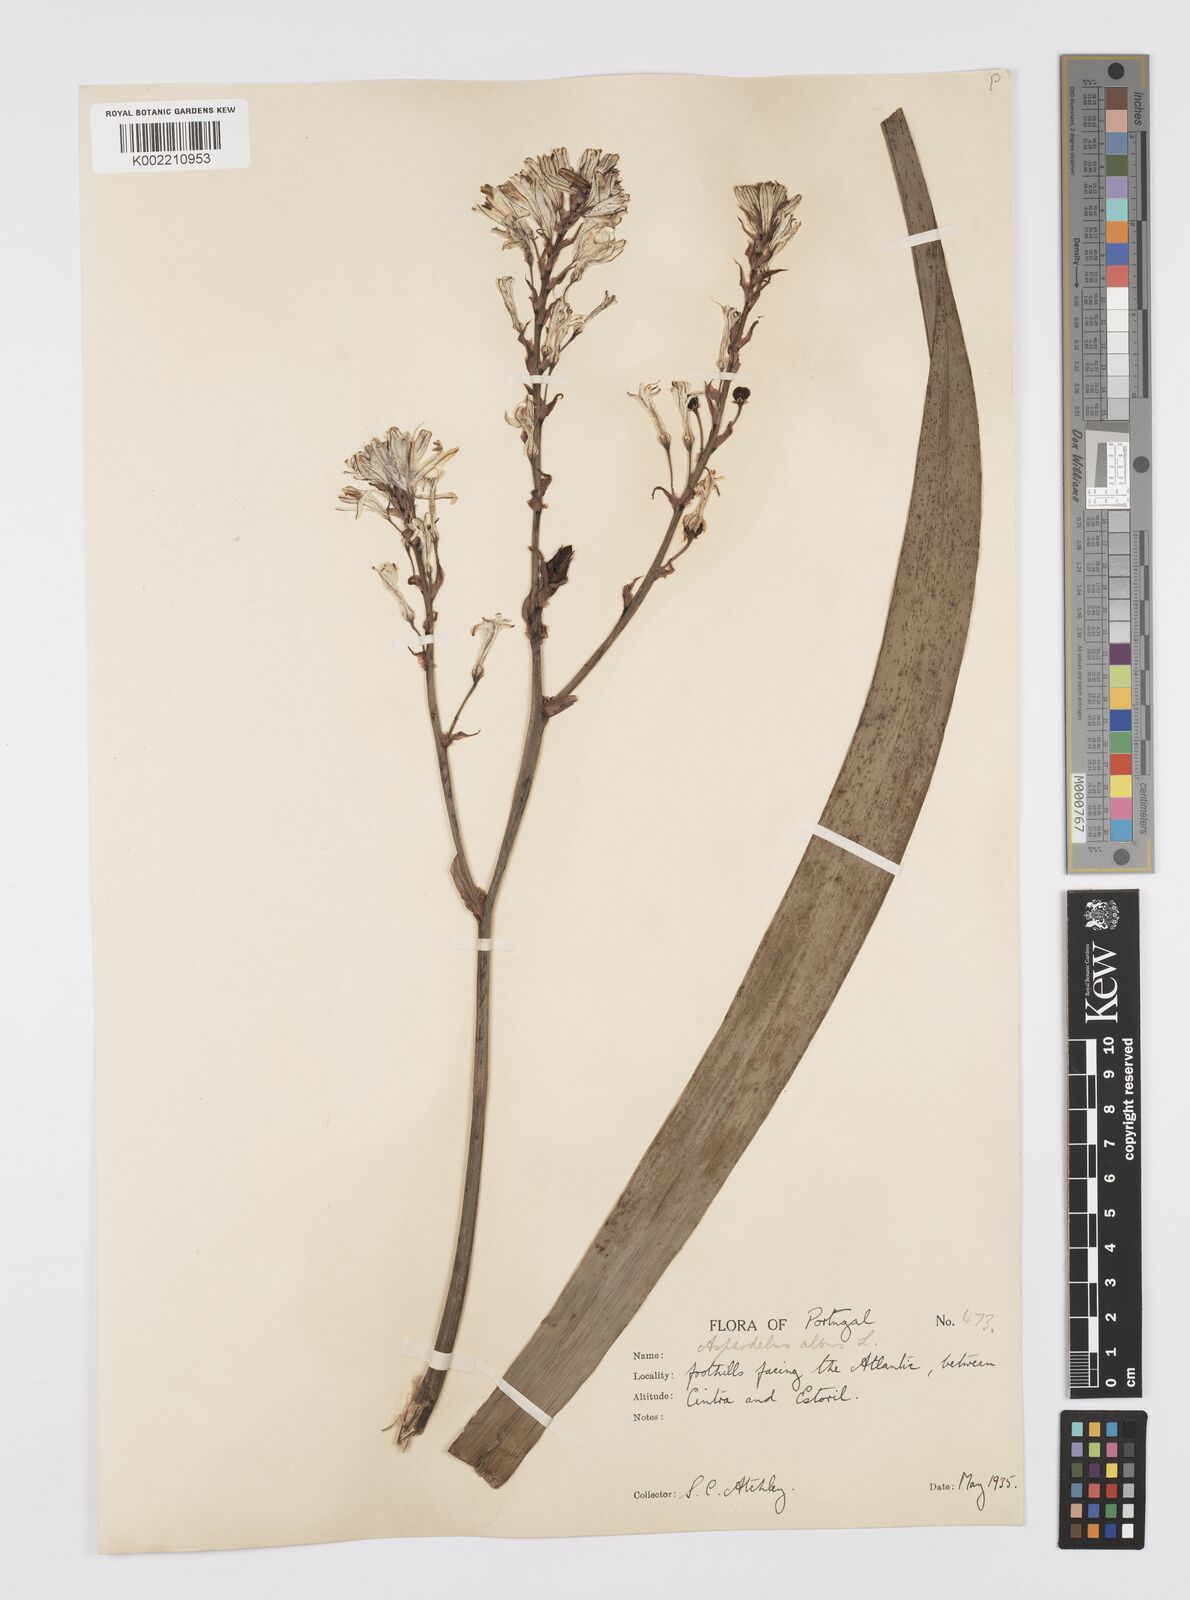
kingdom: Plantae
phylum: Tracheophyta
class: Liliopsida
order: Asparagales
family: Asphodelaceae
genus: Asphodelus
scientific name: Asphodelus ramosus
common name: Silverrod
